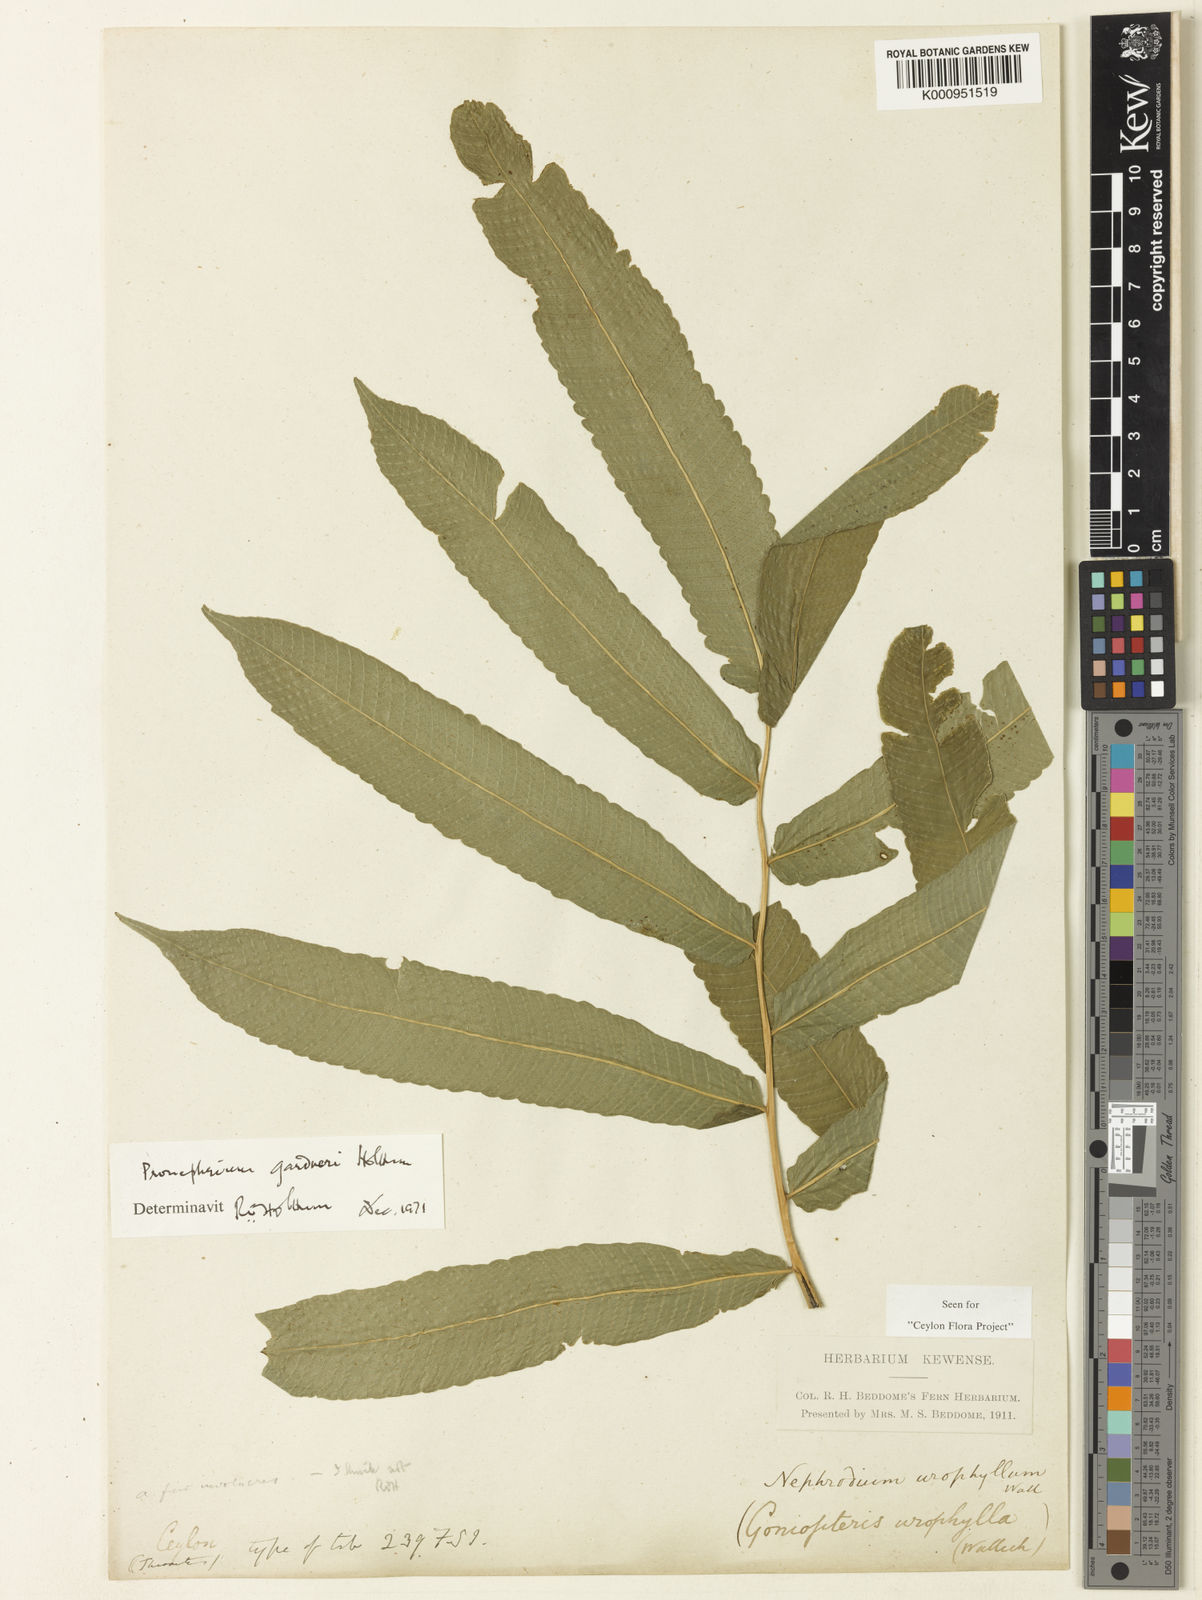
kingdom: Plantae
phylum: Tracheophyta
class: Polypodiopsida
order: Polypodiales
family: Thelypteridaceae
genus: Abacopteris
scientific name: Abacopteris gardneri
